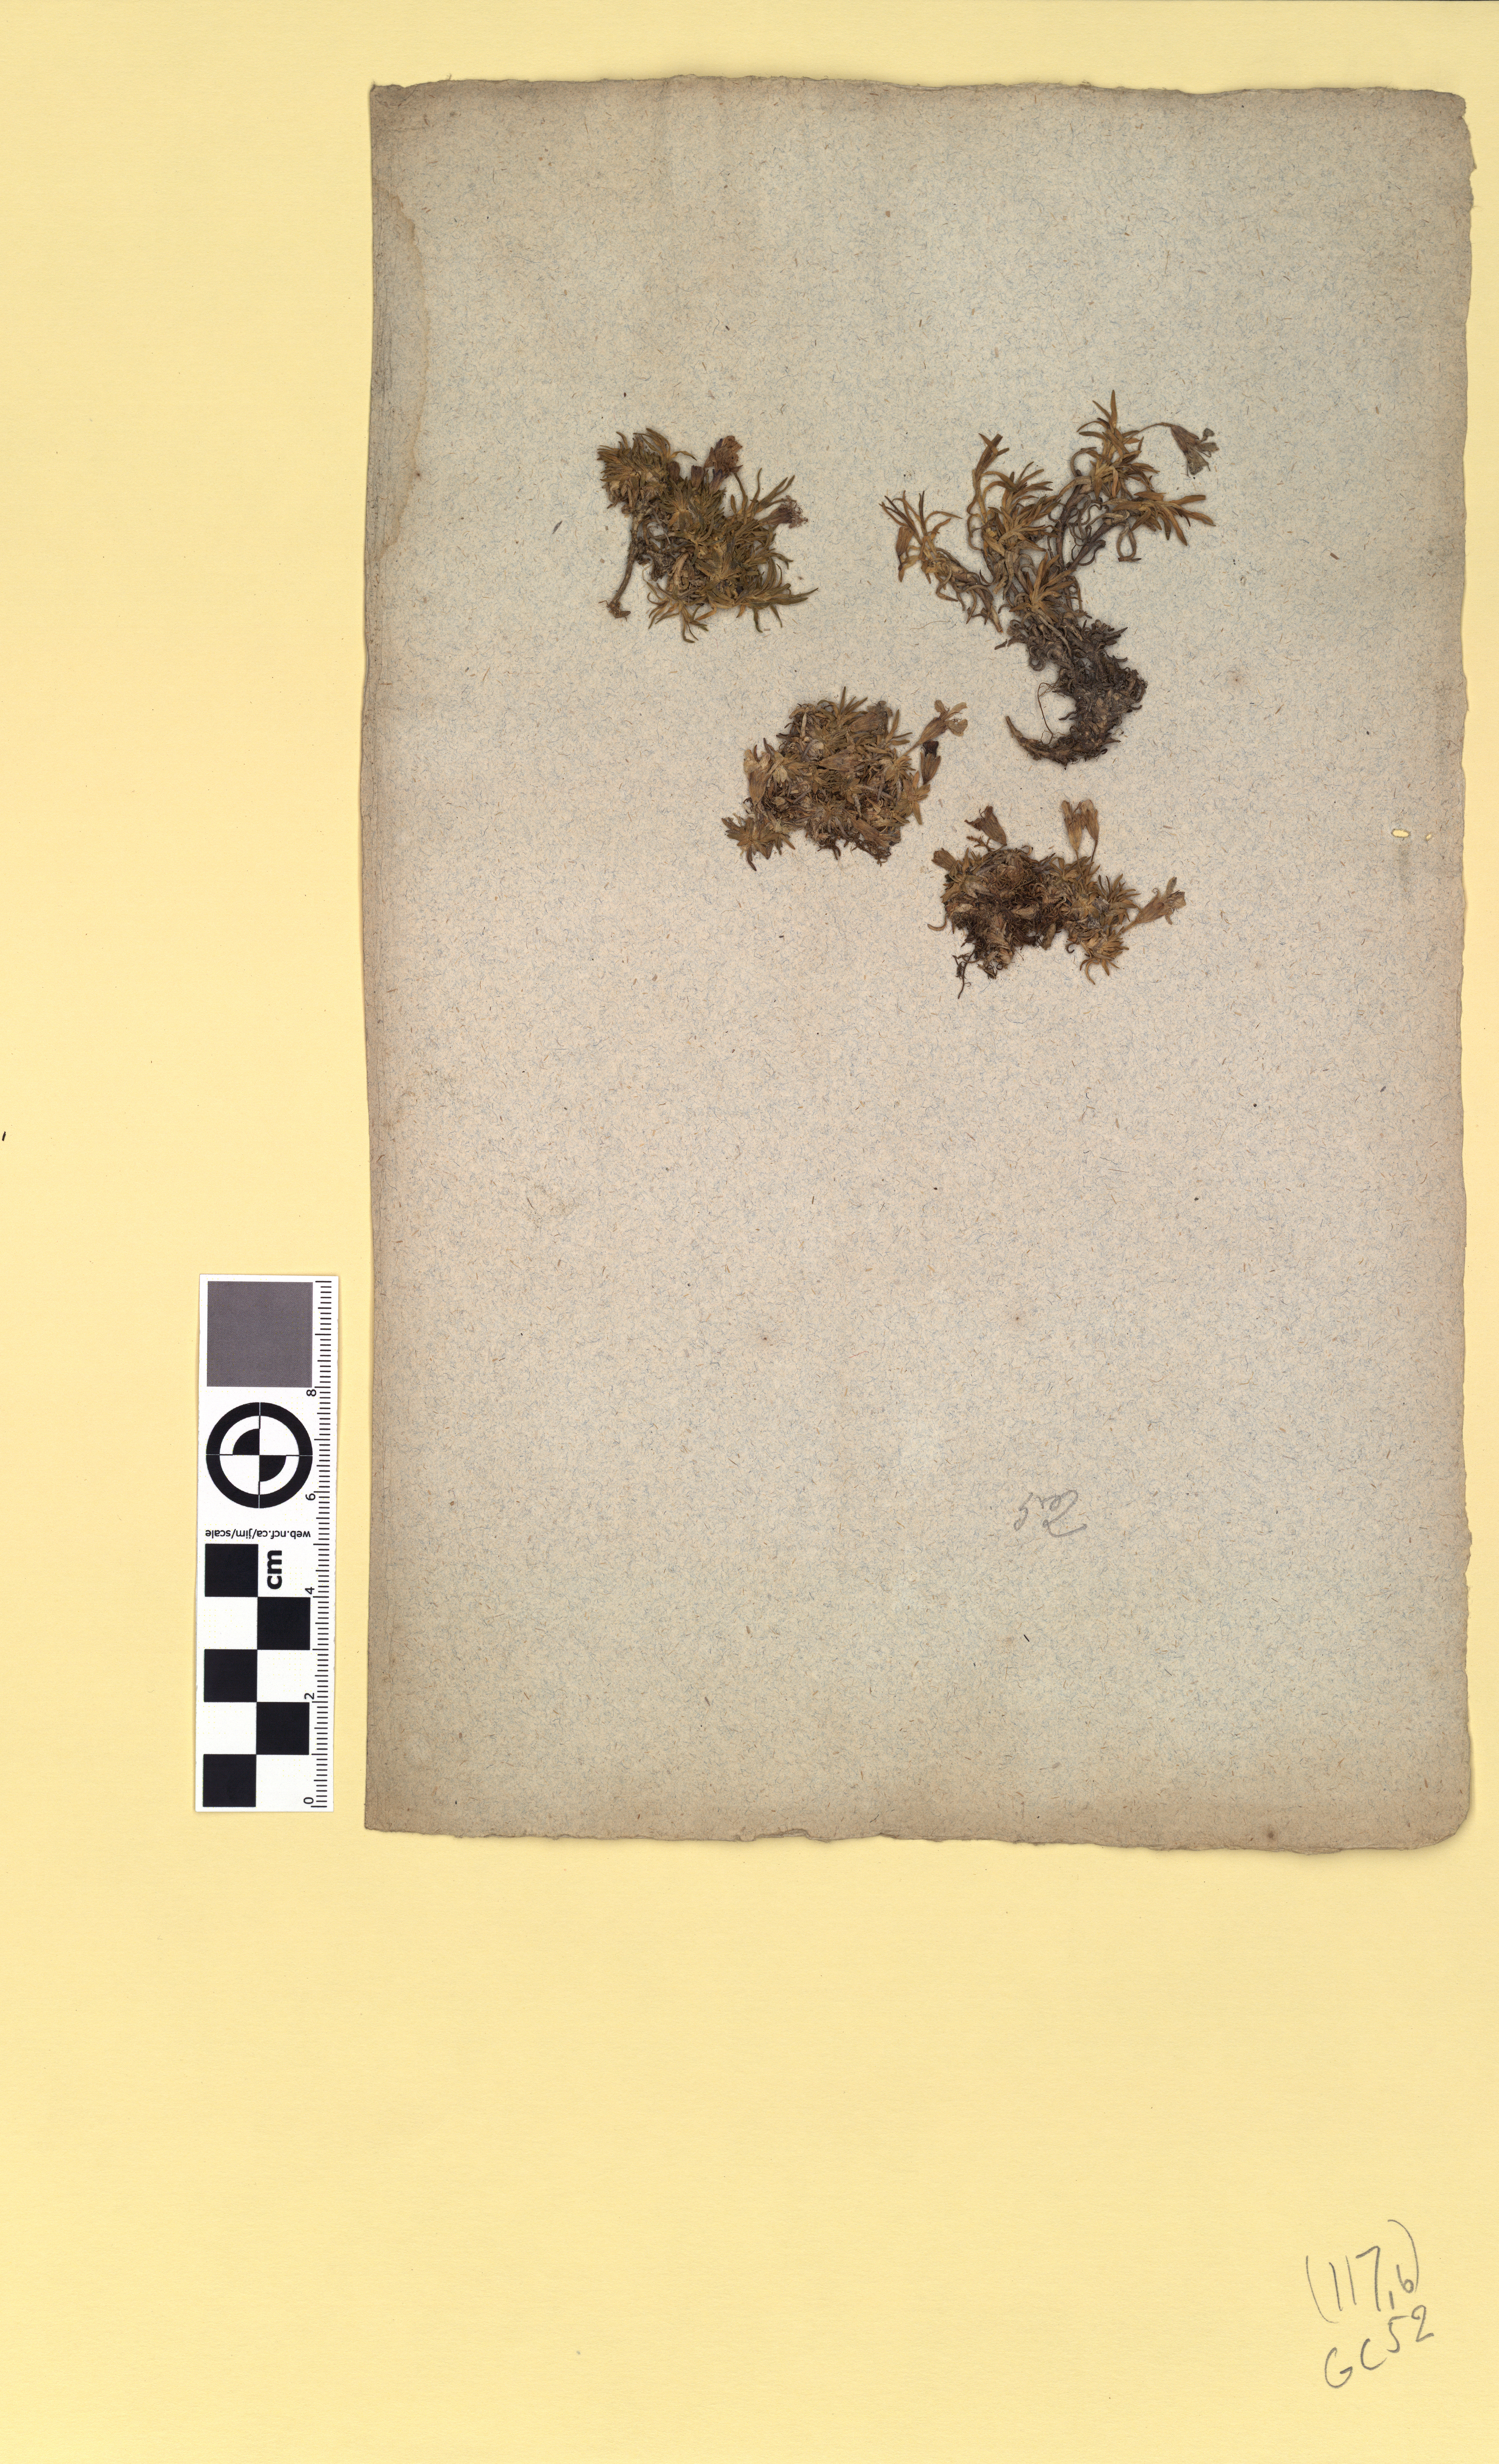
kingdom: Plantae
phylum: Tracheophyta
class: Magnoliopsida
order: Caryophyllales
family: Caryophyllaceae
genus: Silene
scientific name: Silene acaulis
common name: Moss campion
